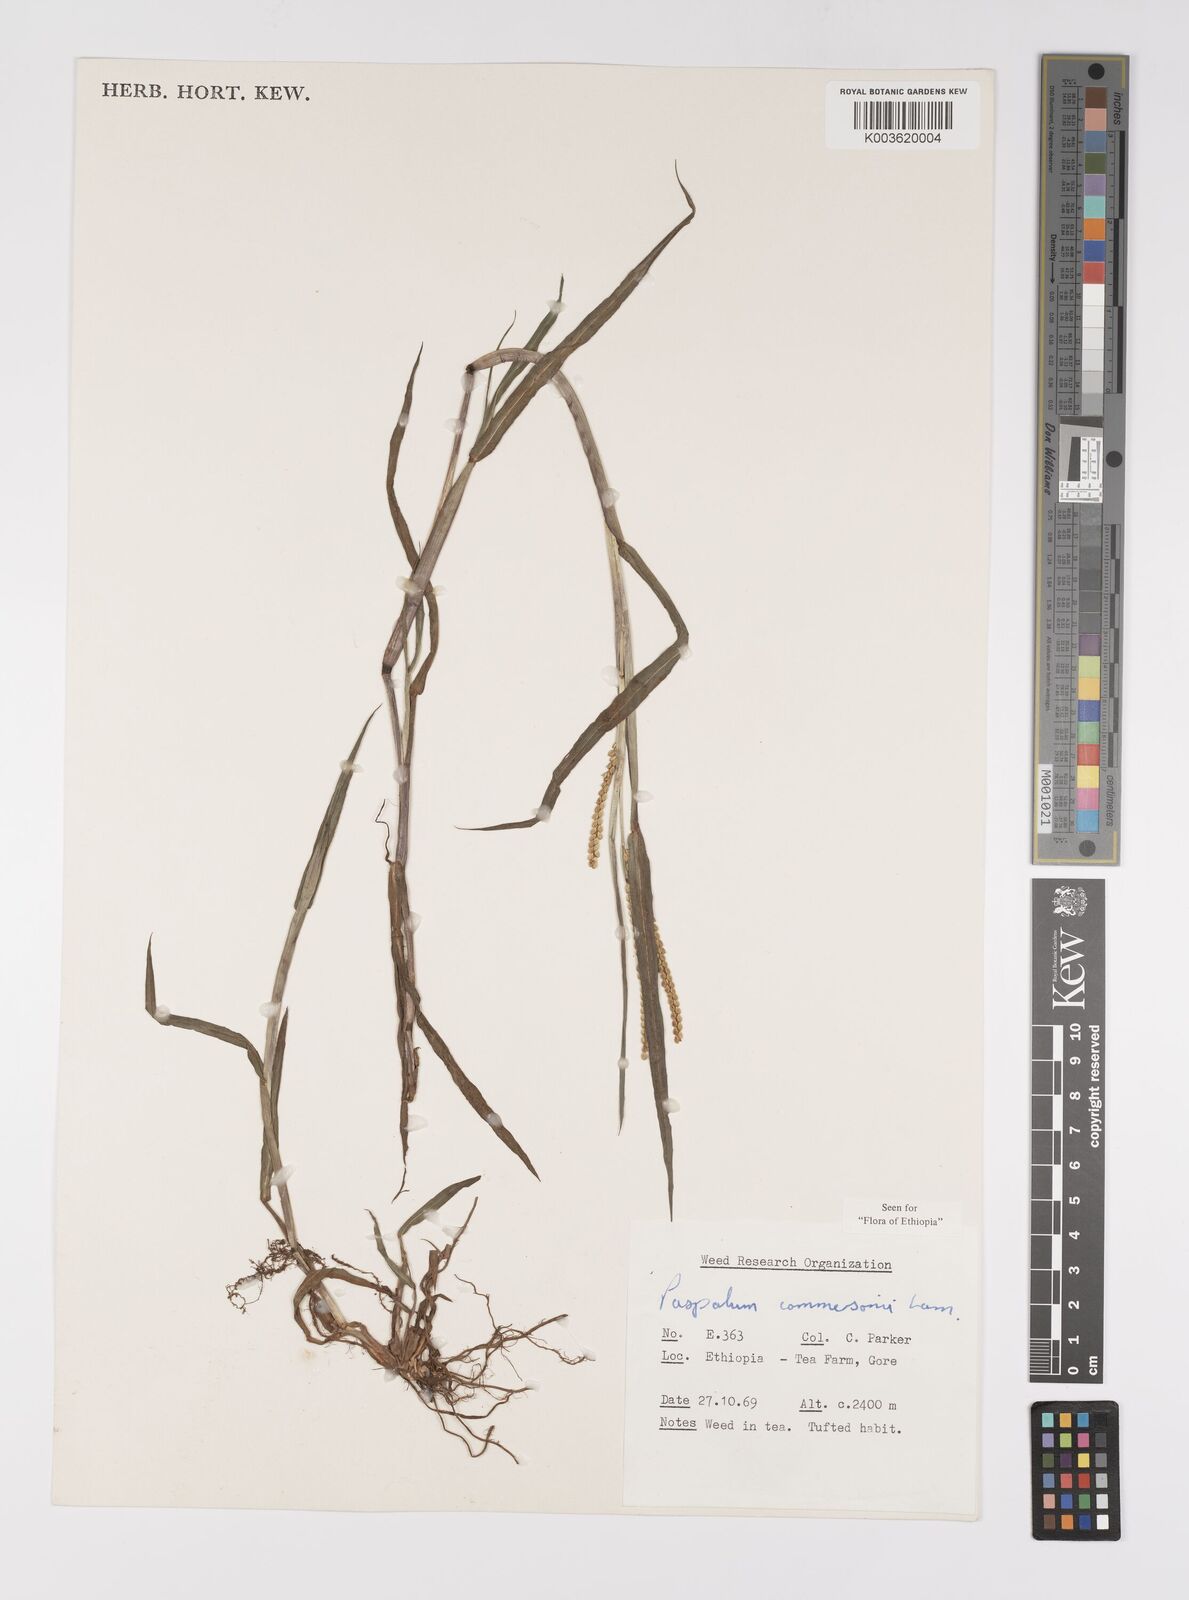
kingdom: Plantae
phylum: Tracheophyta
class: Liliopsida
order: Poales
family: Poaceae
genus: Paspalum
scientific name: Paspalum scrobiculatum
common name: Kodo millet
